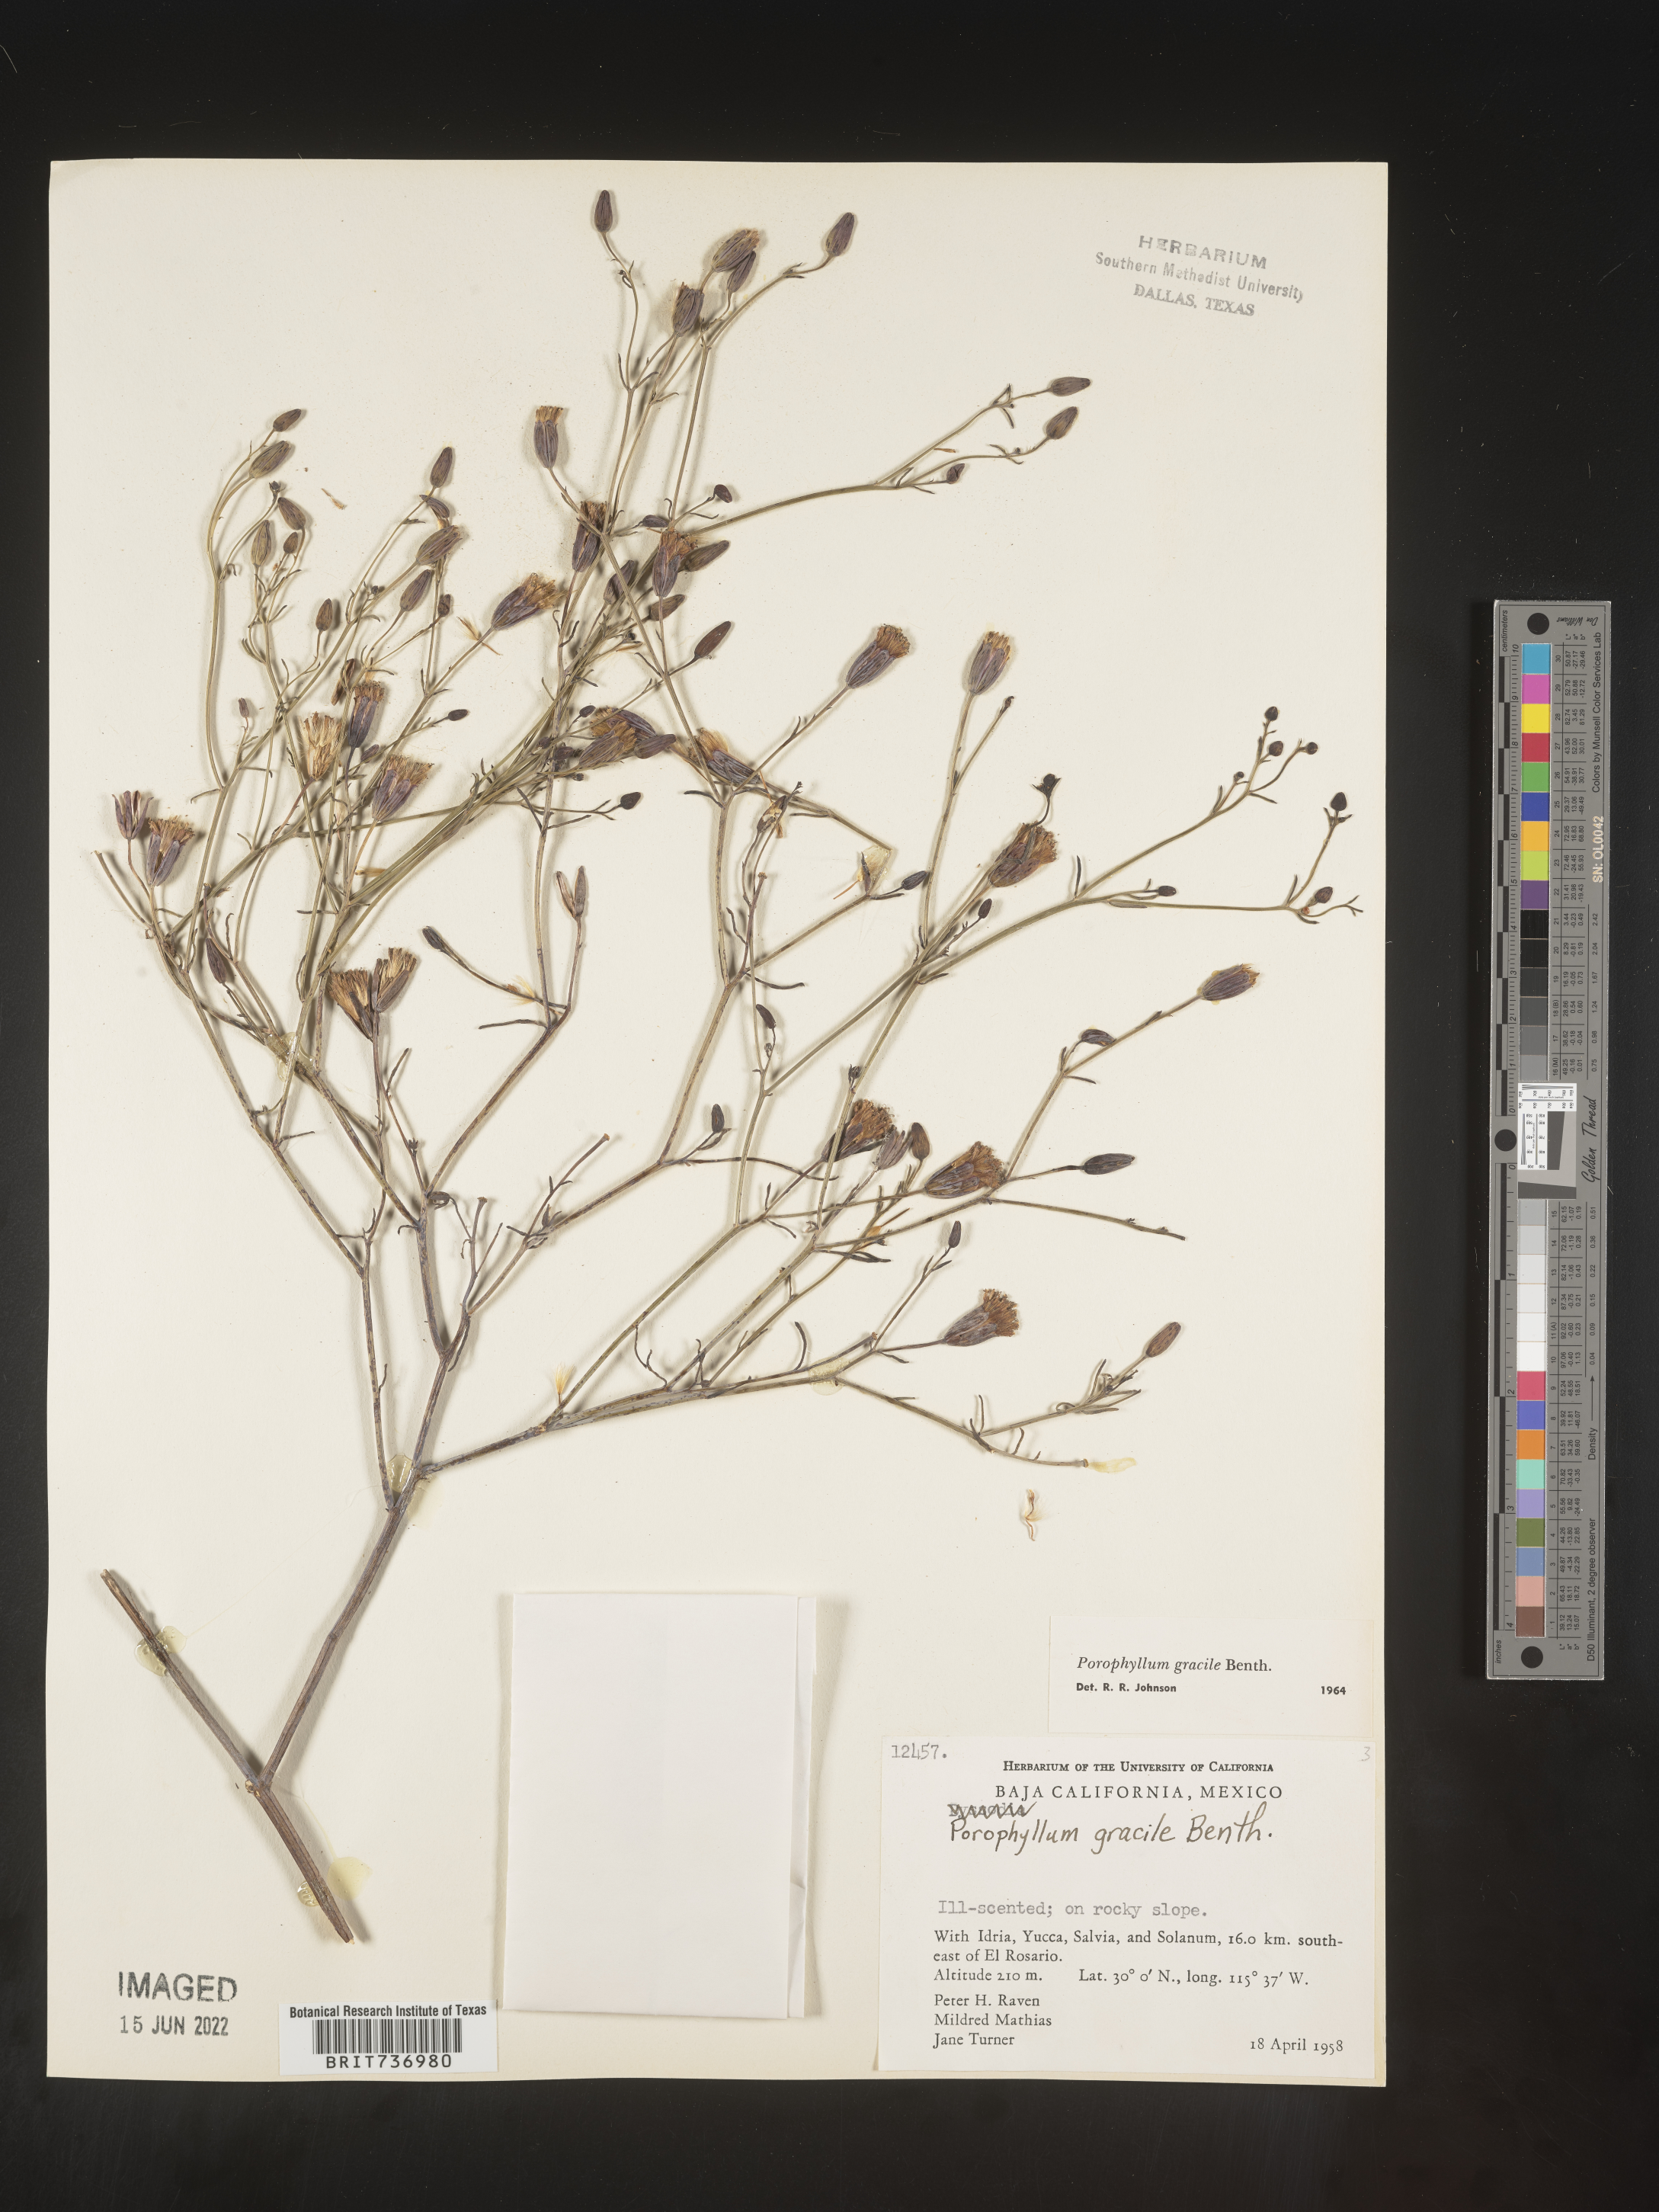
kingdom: Plantae
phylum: Tracheophyta
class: Magnoliopsida
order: Asterales
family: Asteraceae
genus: Porophyllum
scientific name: Porophyllum
